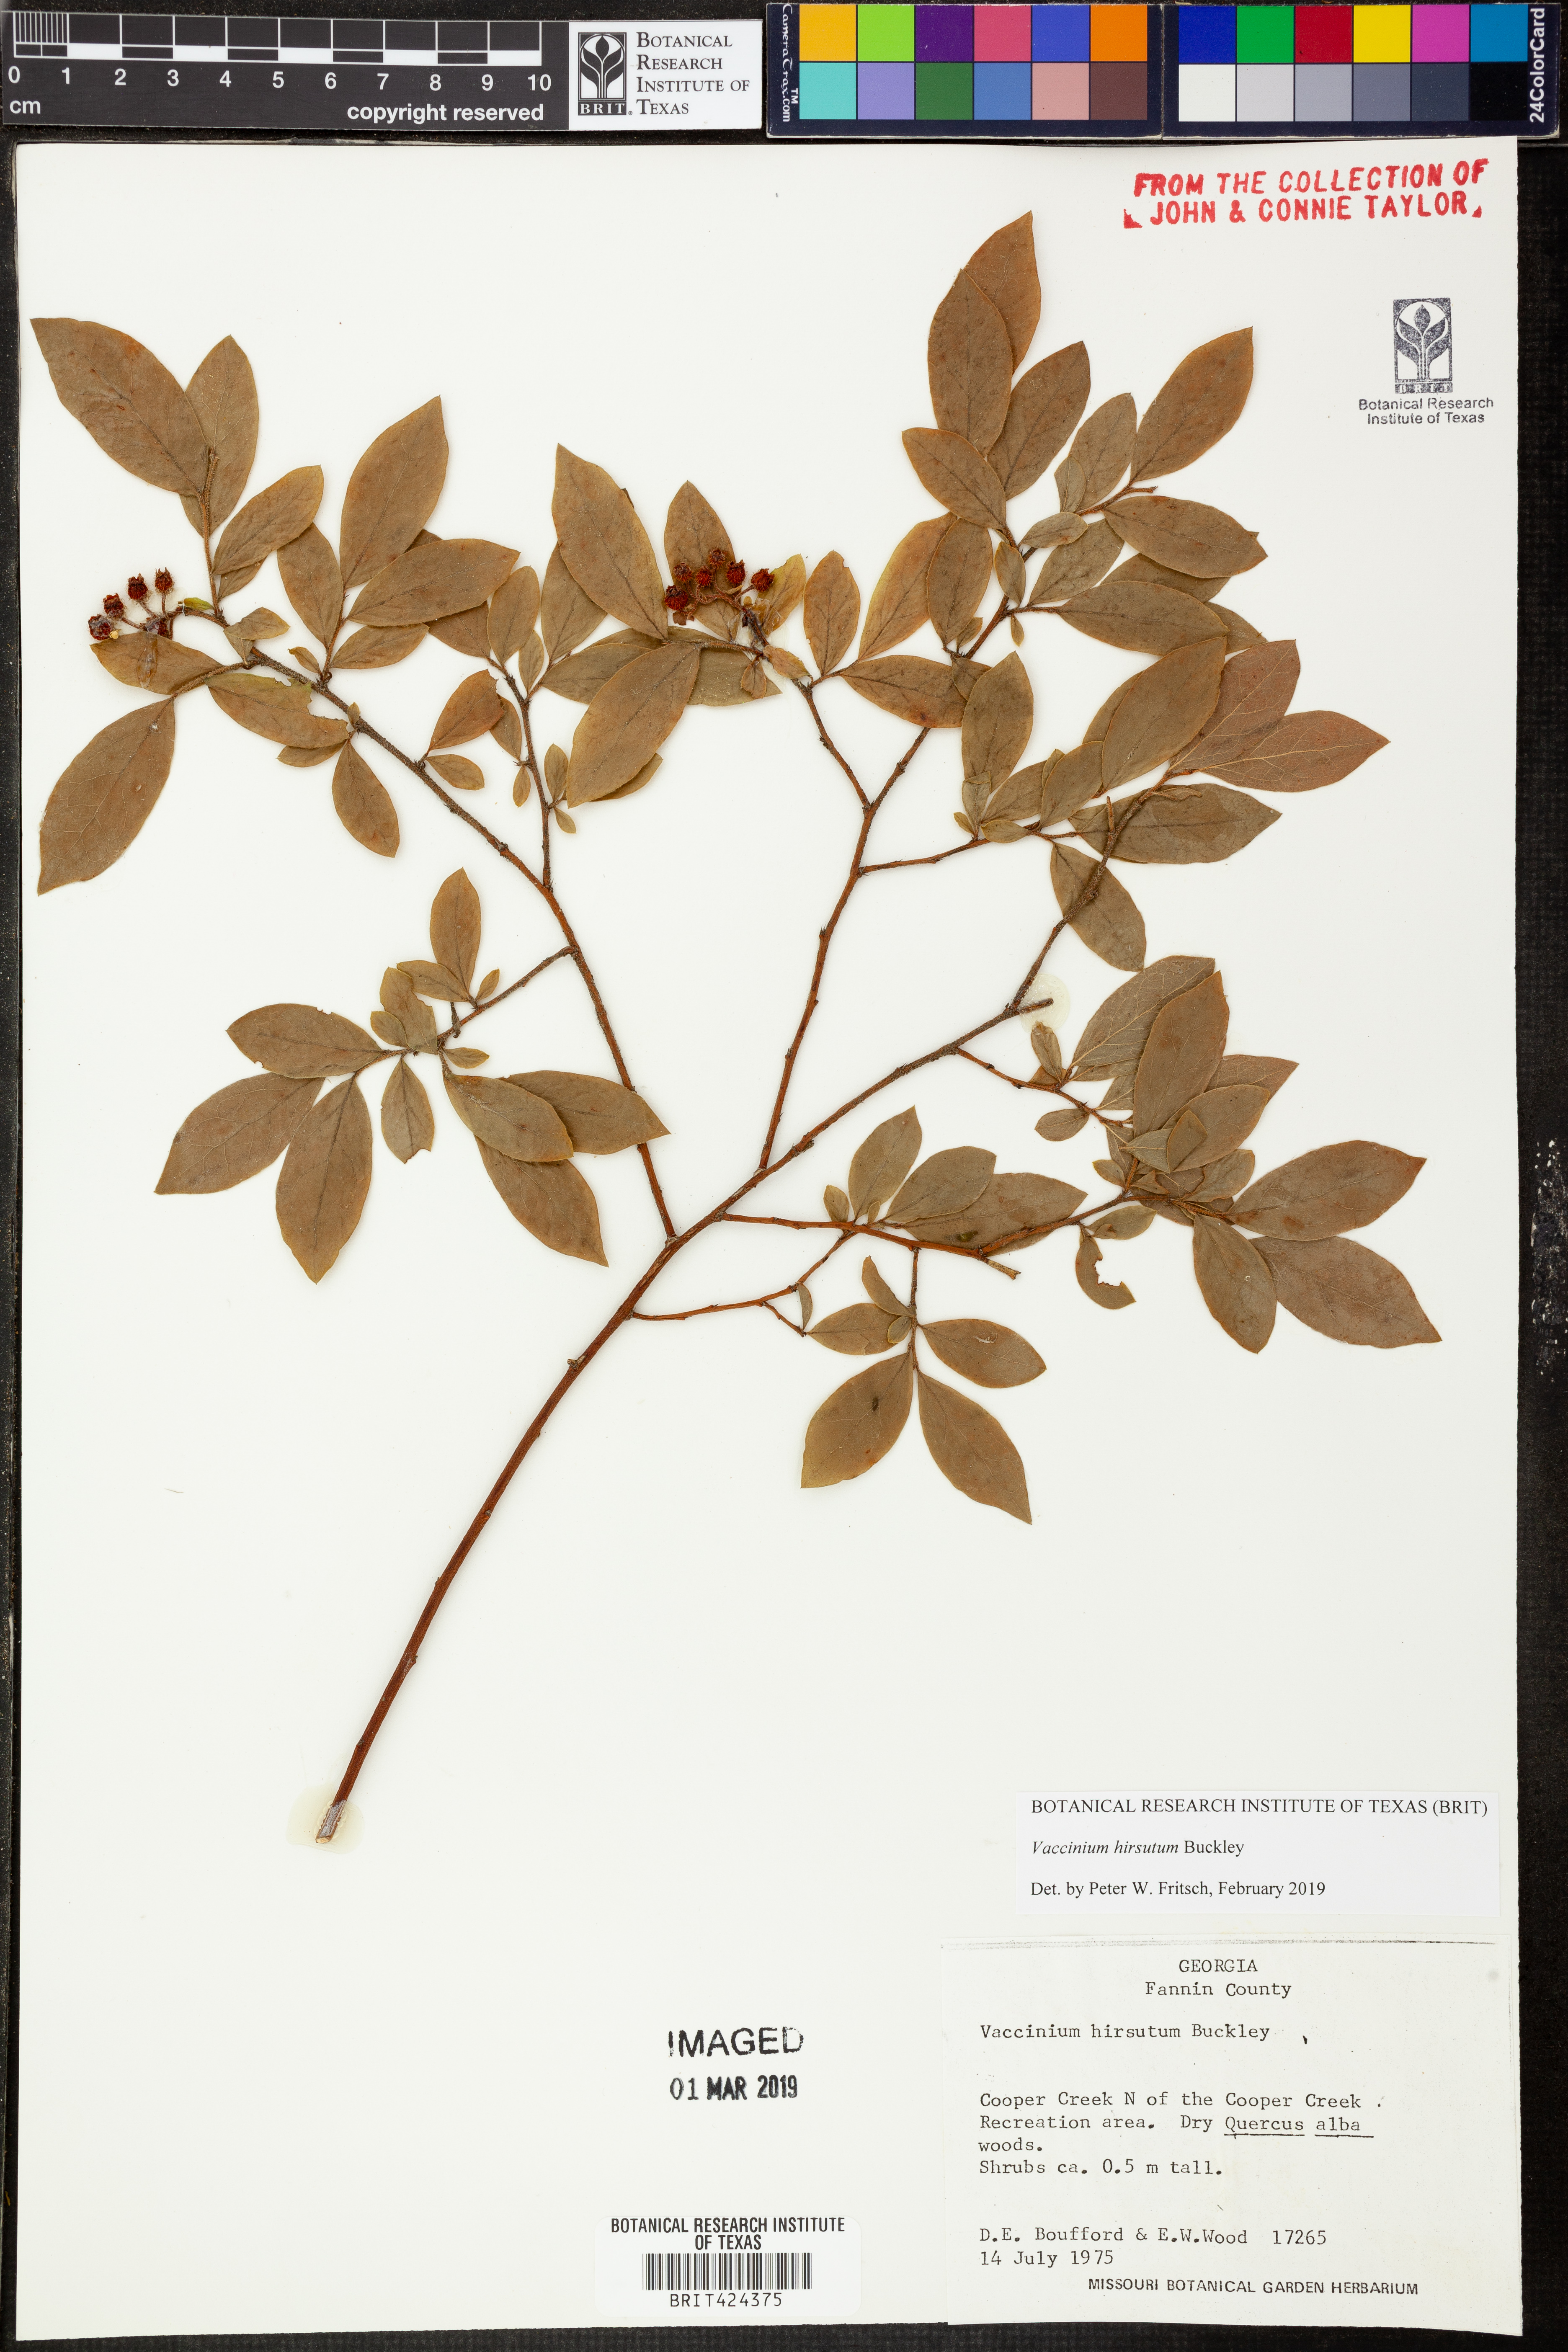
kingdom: Plantae
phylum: Tracheophyta
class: Magnoliopsida
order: Ericales
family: Ericaceae
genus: Vaccinium
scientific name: Vaccinium hirsutum
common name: Woolly-berry
